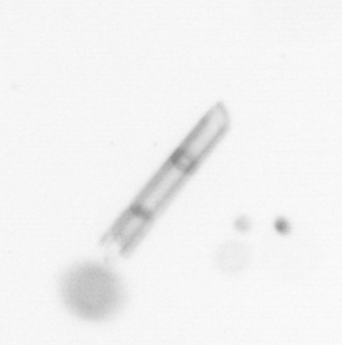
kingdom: Chromista
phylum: Ochrophyta
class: Bacillariophyceae
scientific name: Bacillariophyceae
